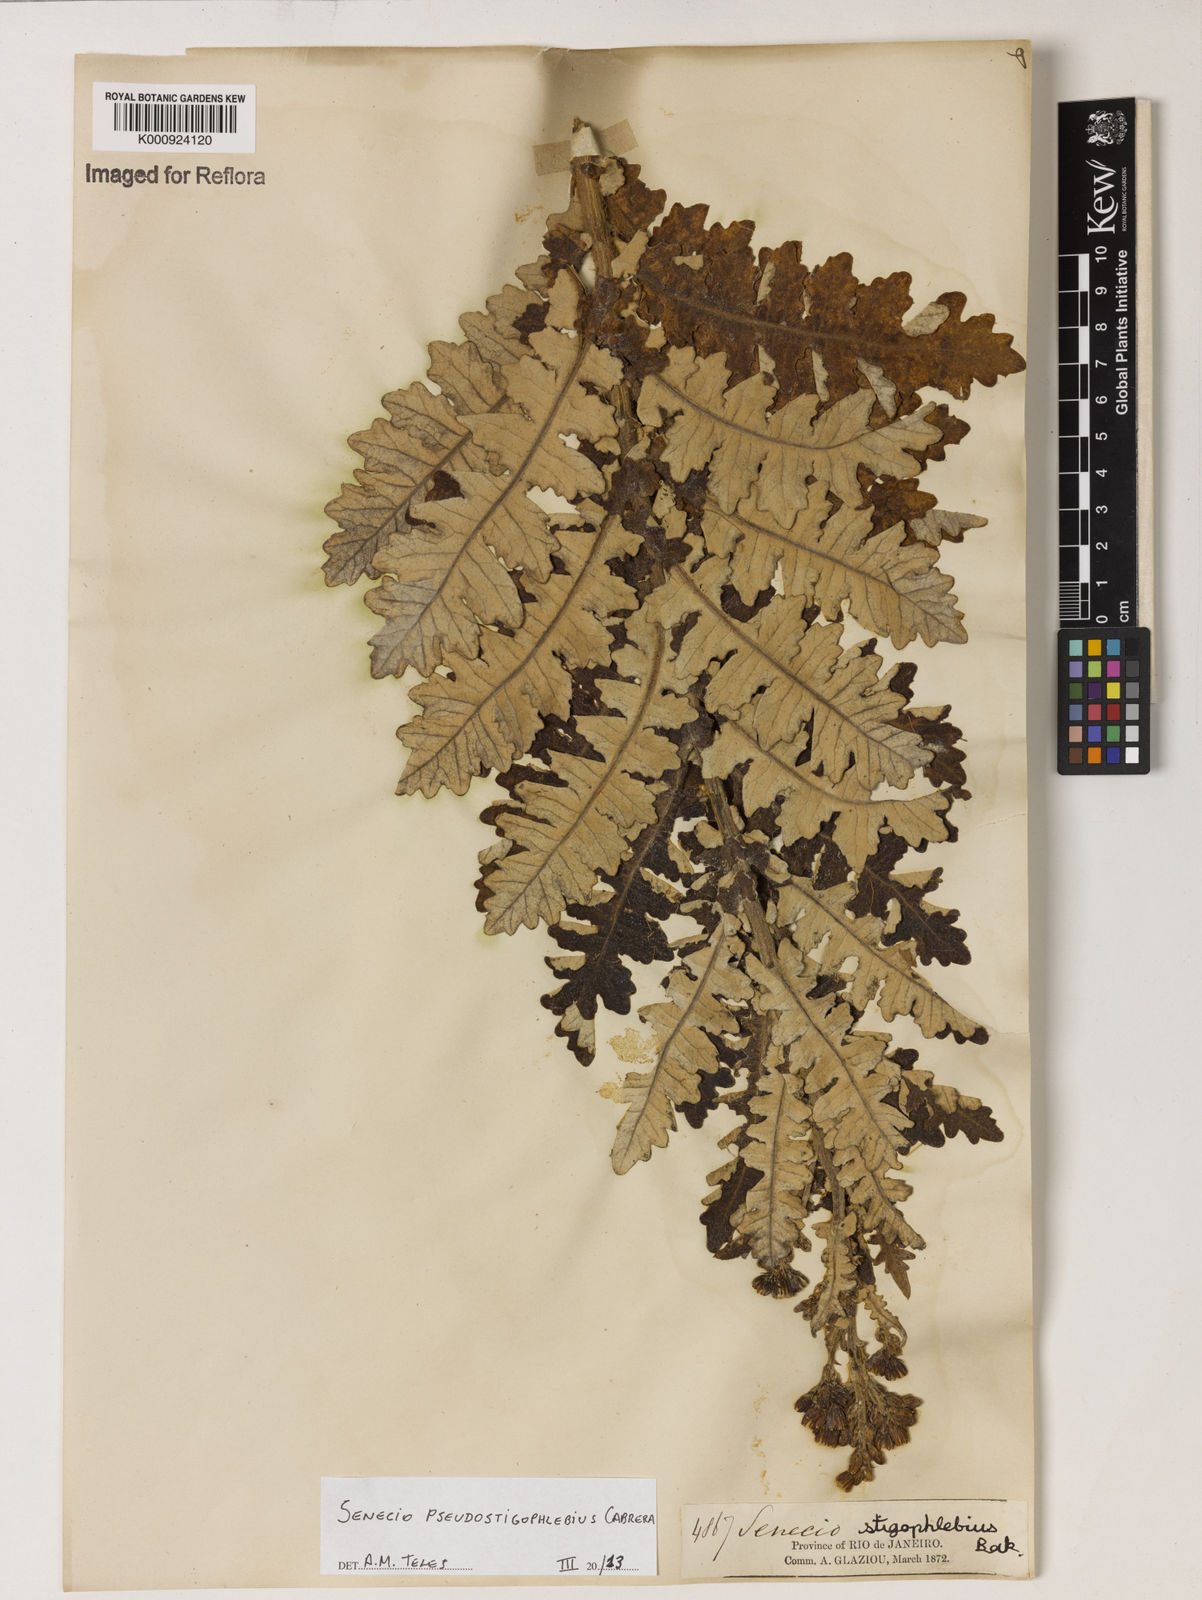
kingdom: Plantae
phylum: Tracheophyta
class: Magnoliopsida
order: Asterales
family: Asteraceae
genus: Senecio
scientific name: Senecio pseudostigophlebius
